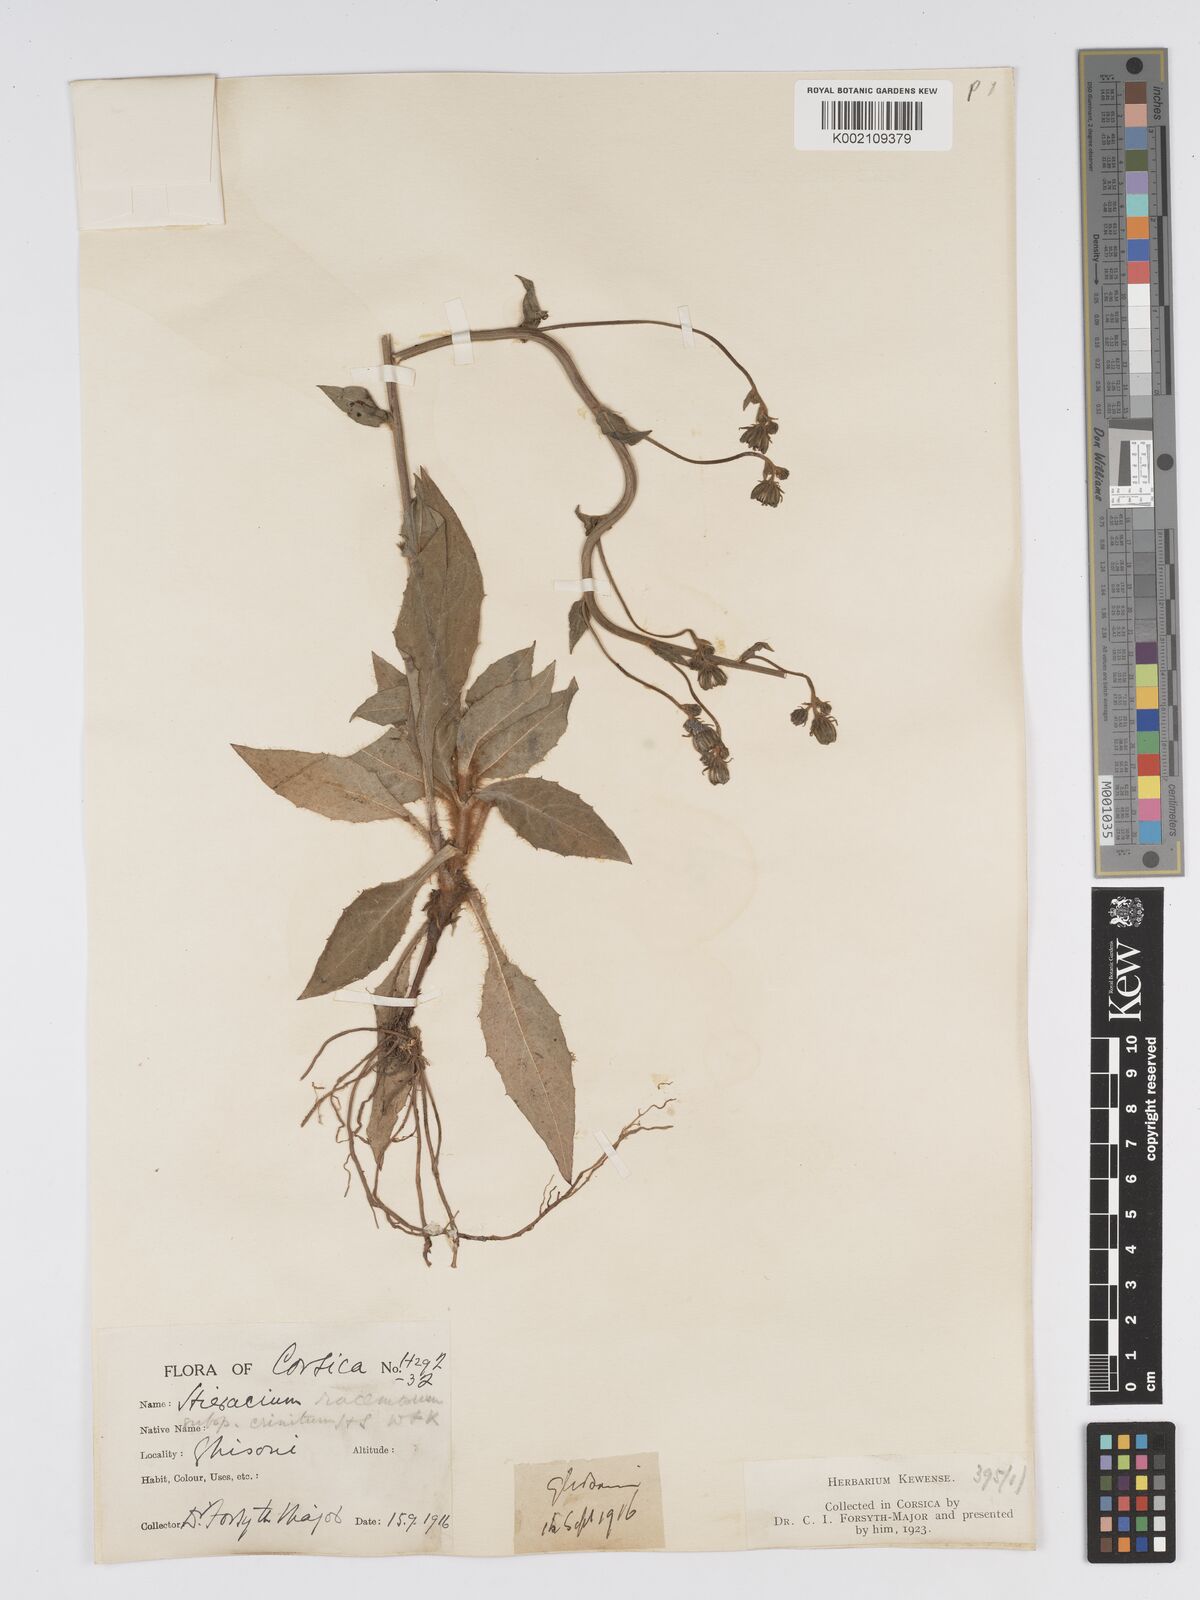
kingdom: Plantae
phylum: Tracheophyta
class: Magnoliopsida
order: Asterales
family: Asteraceae
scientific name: Asteraceae
